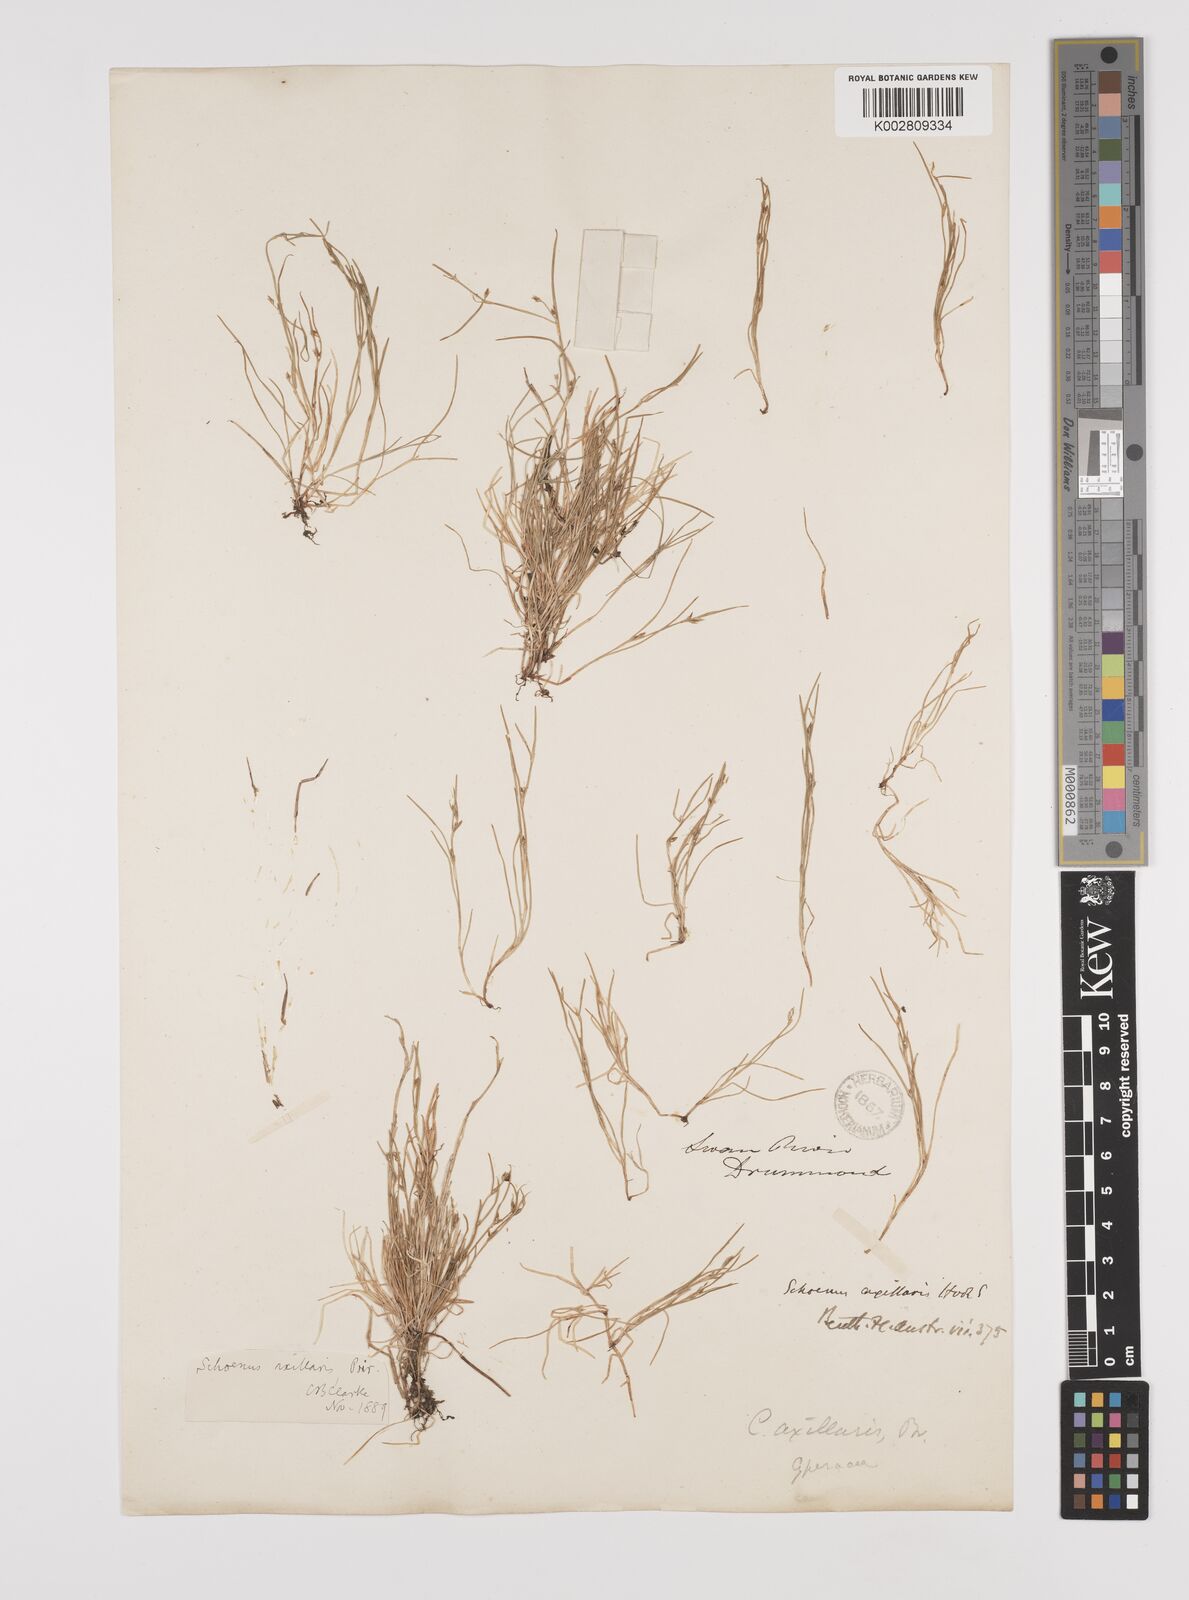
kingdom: Plantae
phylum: Tracheophyta
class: Liliopsida
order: Poales
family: Cyperaceae
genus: Schoenus
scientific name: Schoenus maschalinus
